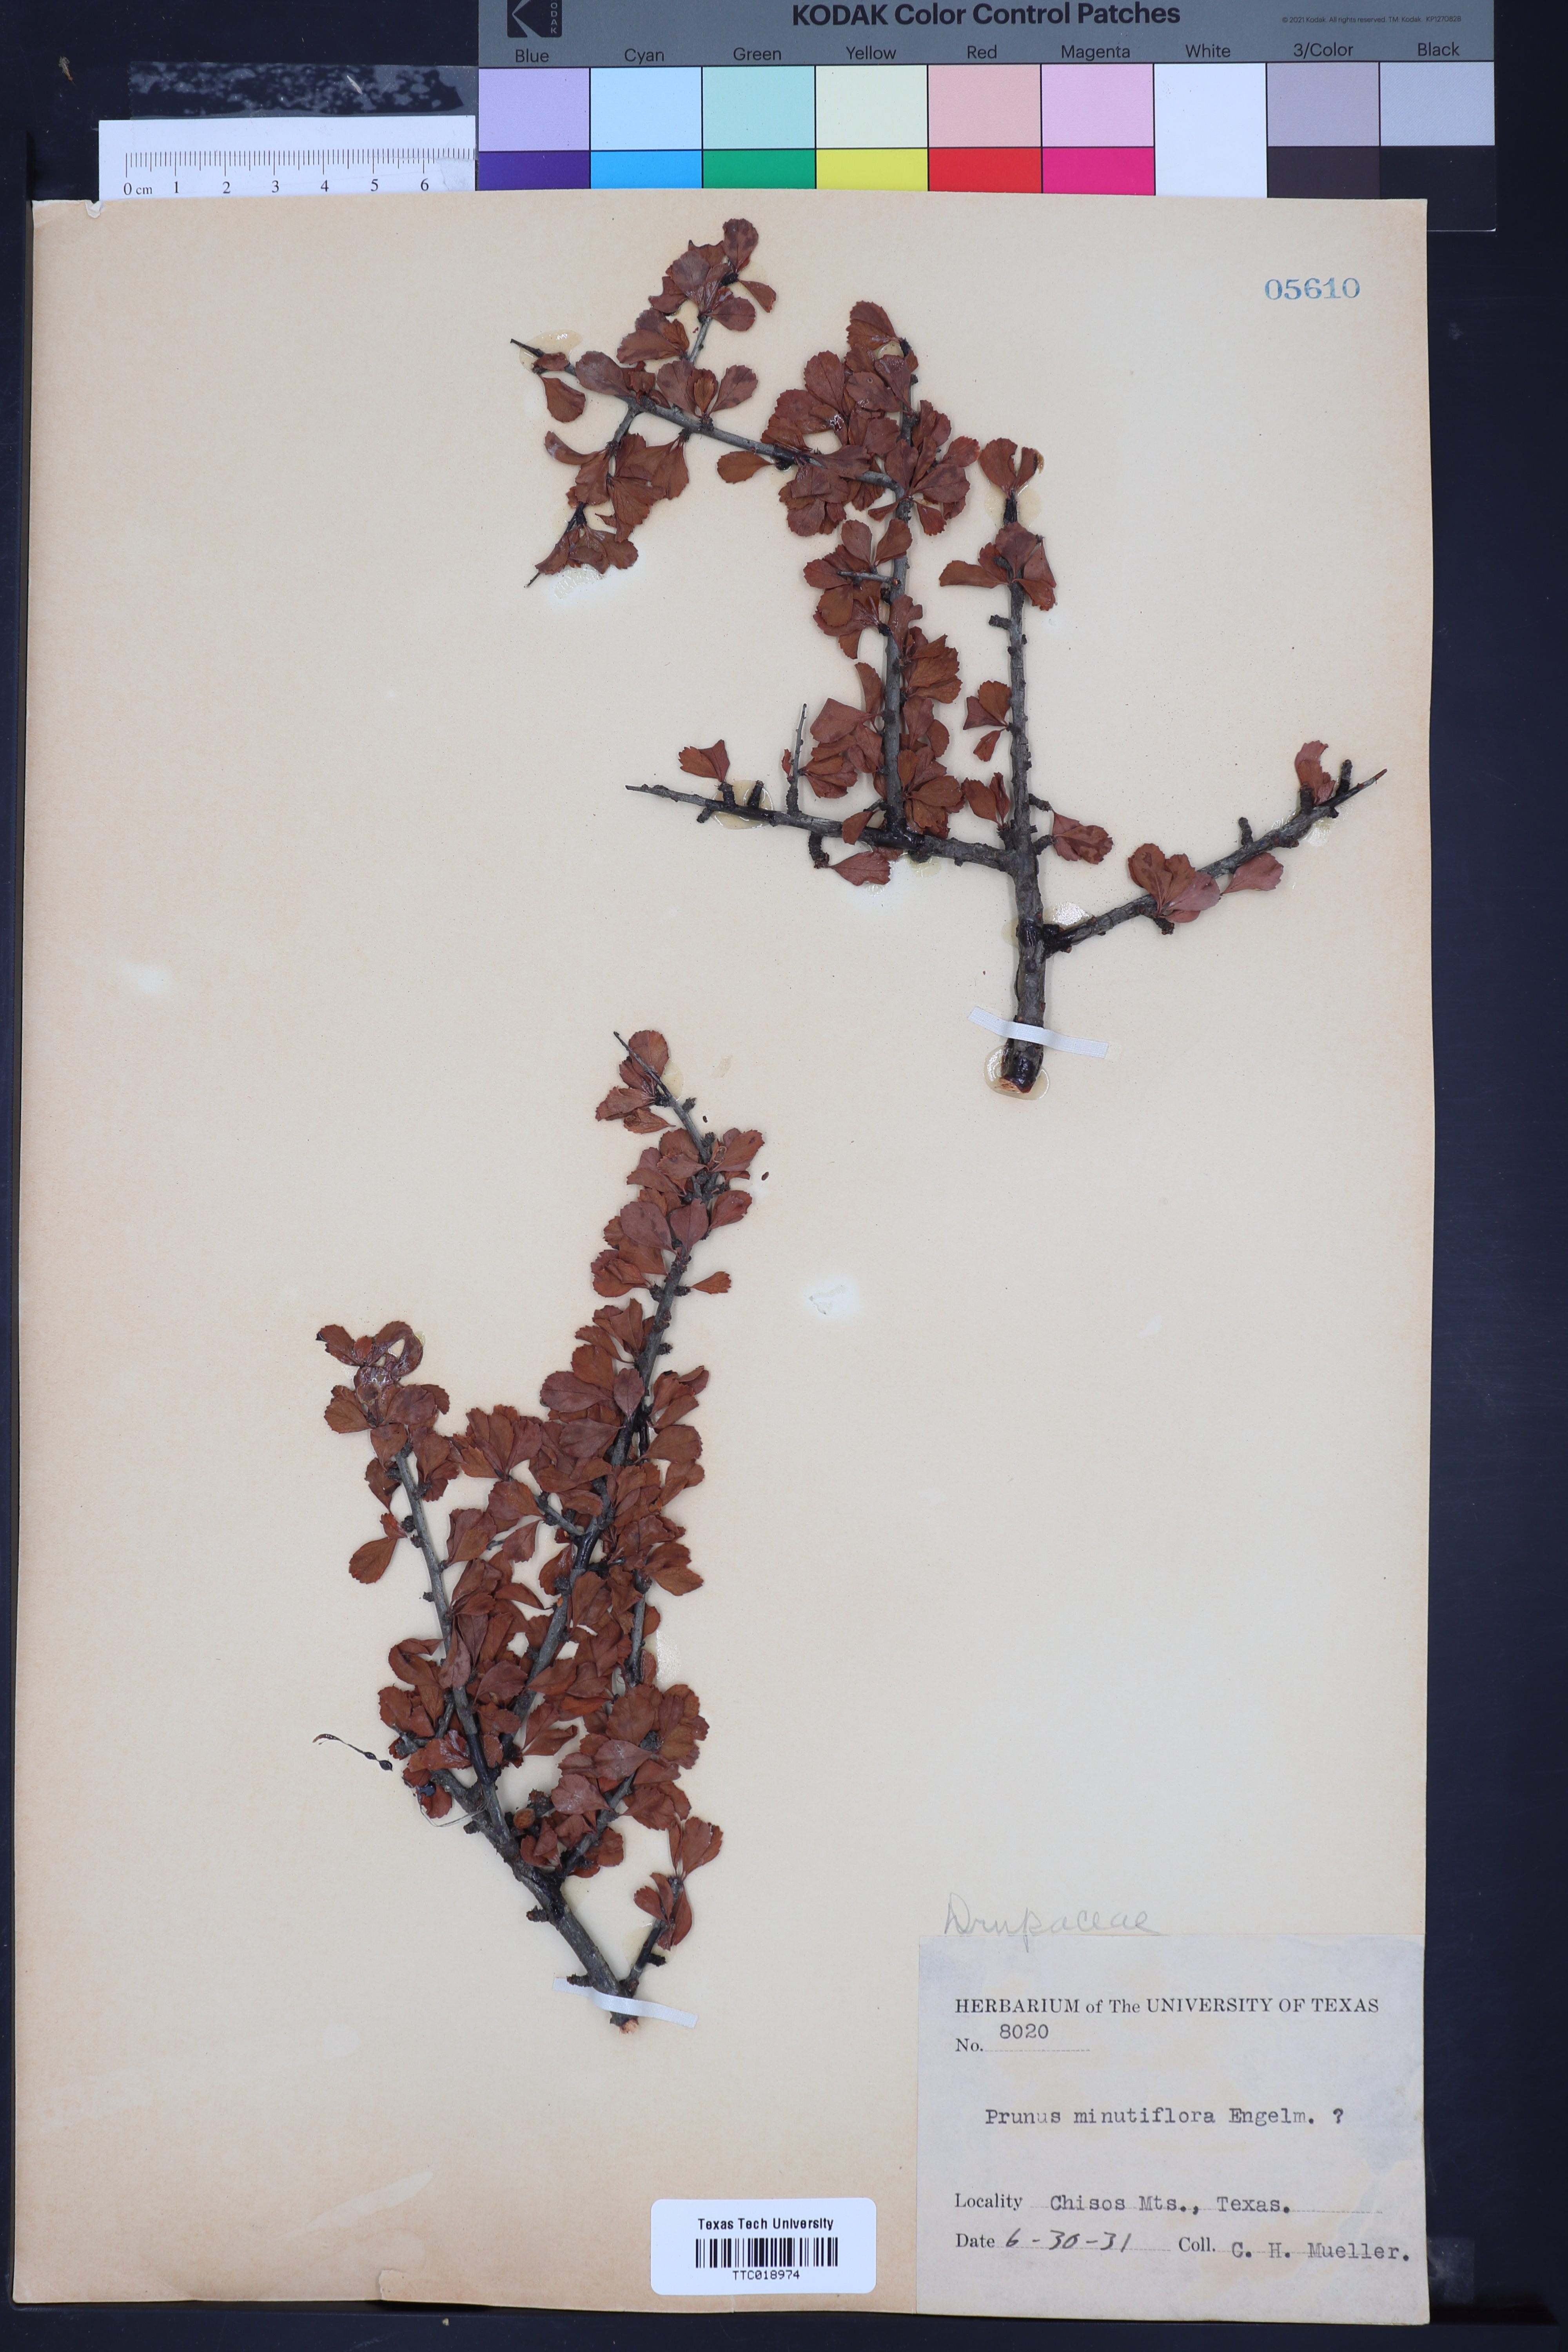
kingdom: Plantae
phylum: Tracheophyta
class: Magnoliopsida
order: Rosales
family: Rosaceae
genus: Prunus
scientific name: Prunus minutiflora
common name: Texas almond
